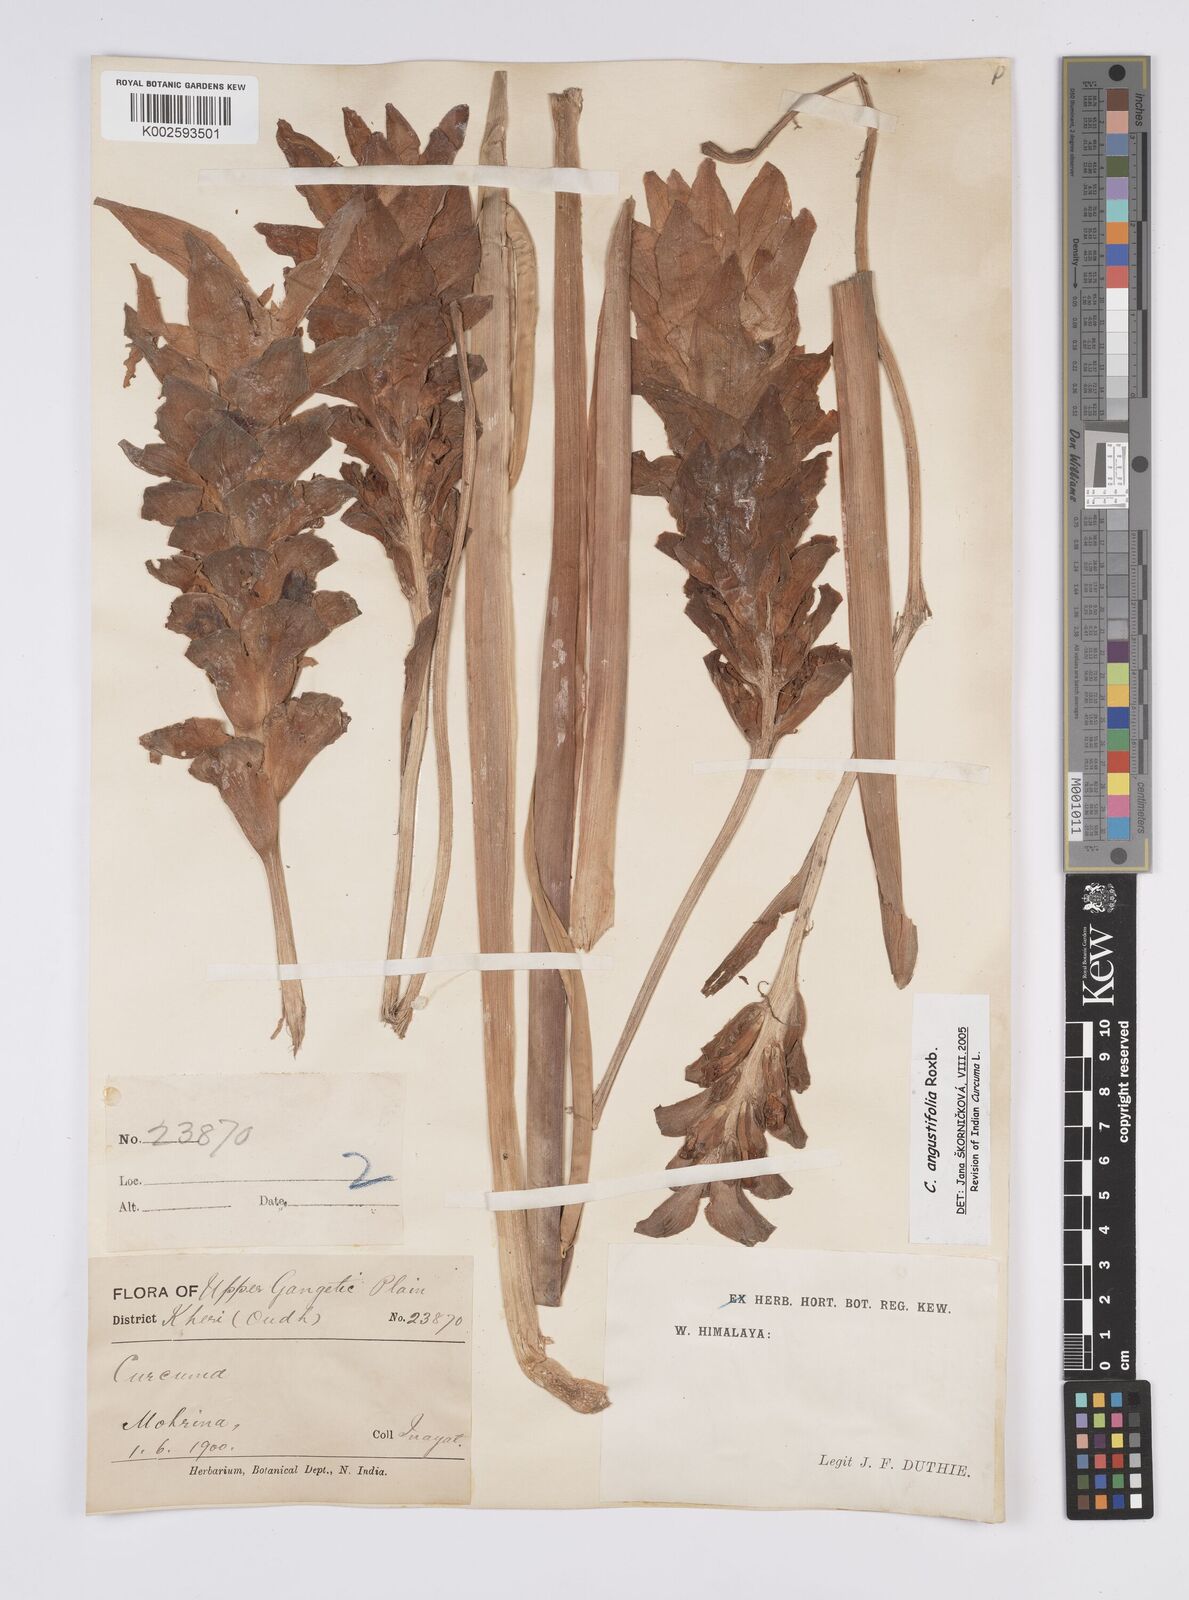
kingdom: Plantae
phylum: Tracheophyta
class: Liliopsida
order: Zingiberales
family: Zingiberaceae
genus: Curcuma
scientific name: Curcuma angustifolia
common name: East indian arrowroot
